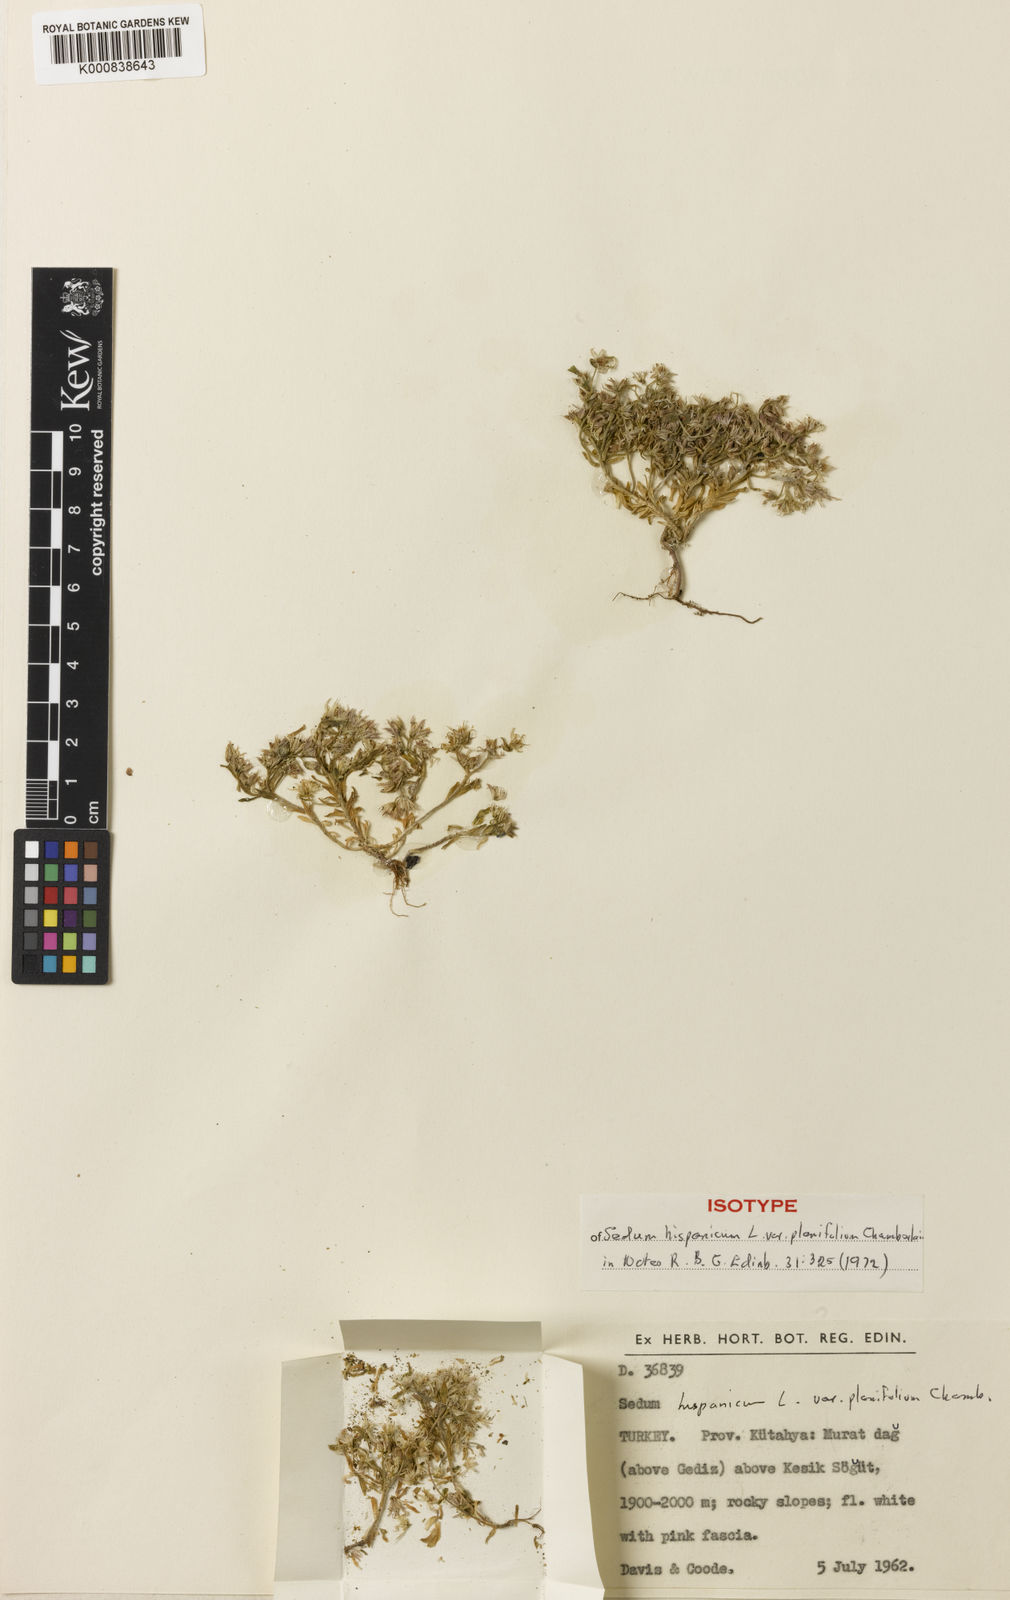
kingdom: Plantae
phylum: Tracheophyta
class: Magnoliopsida
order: Saxifragales
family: Crassulaceae
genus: Sedum
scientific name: Sedum hispanicum
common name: Spanish stonecrop
